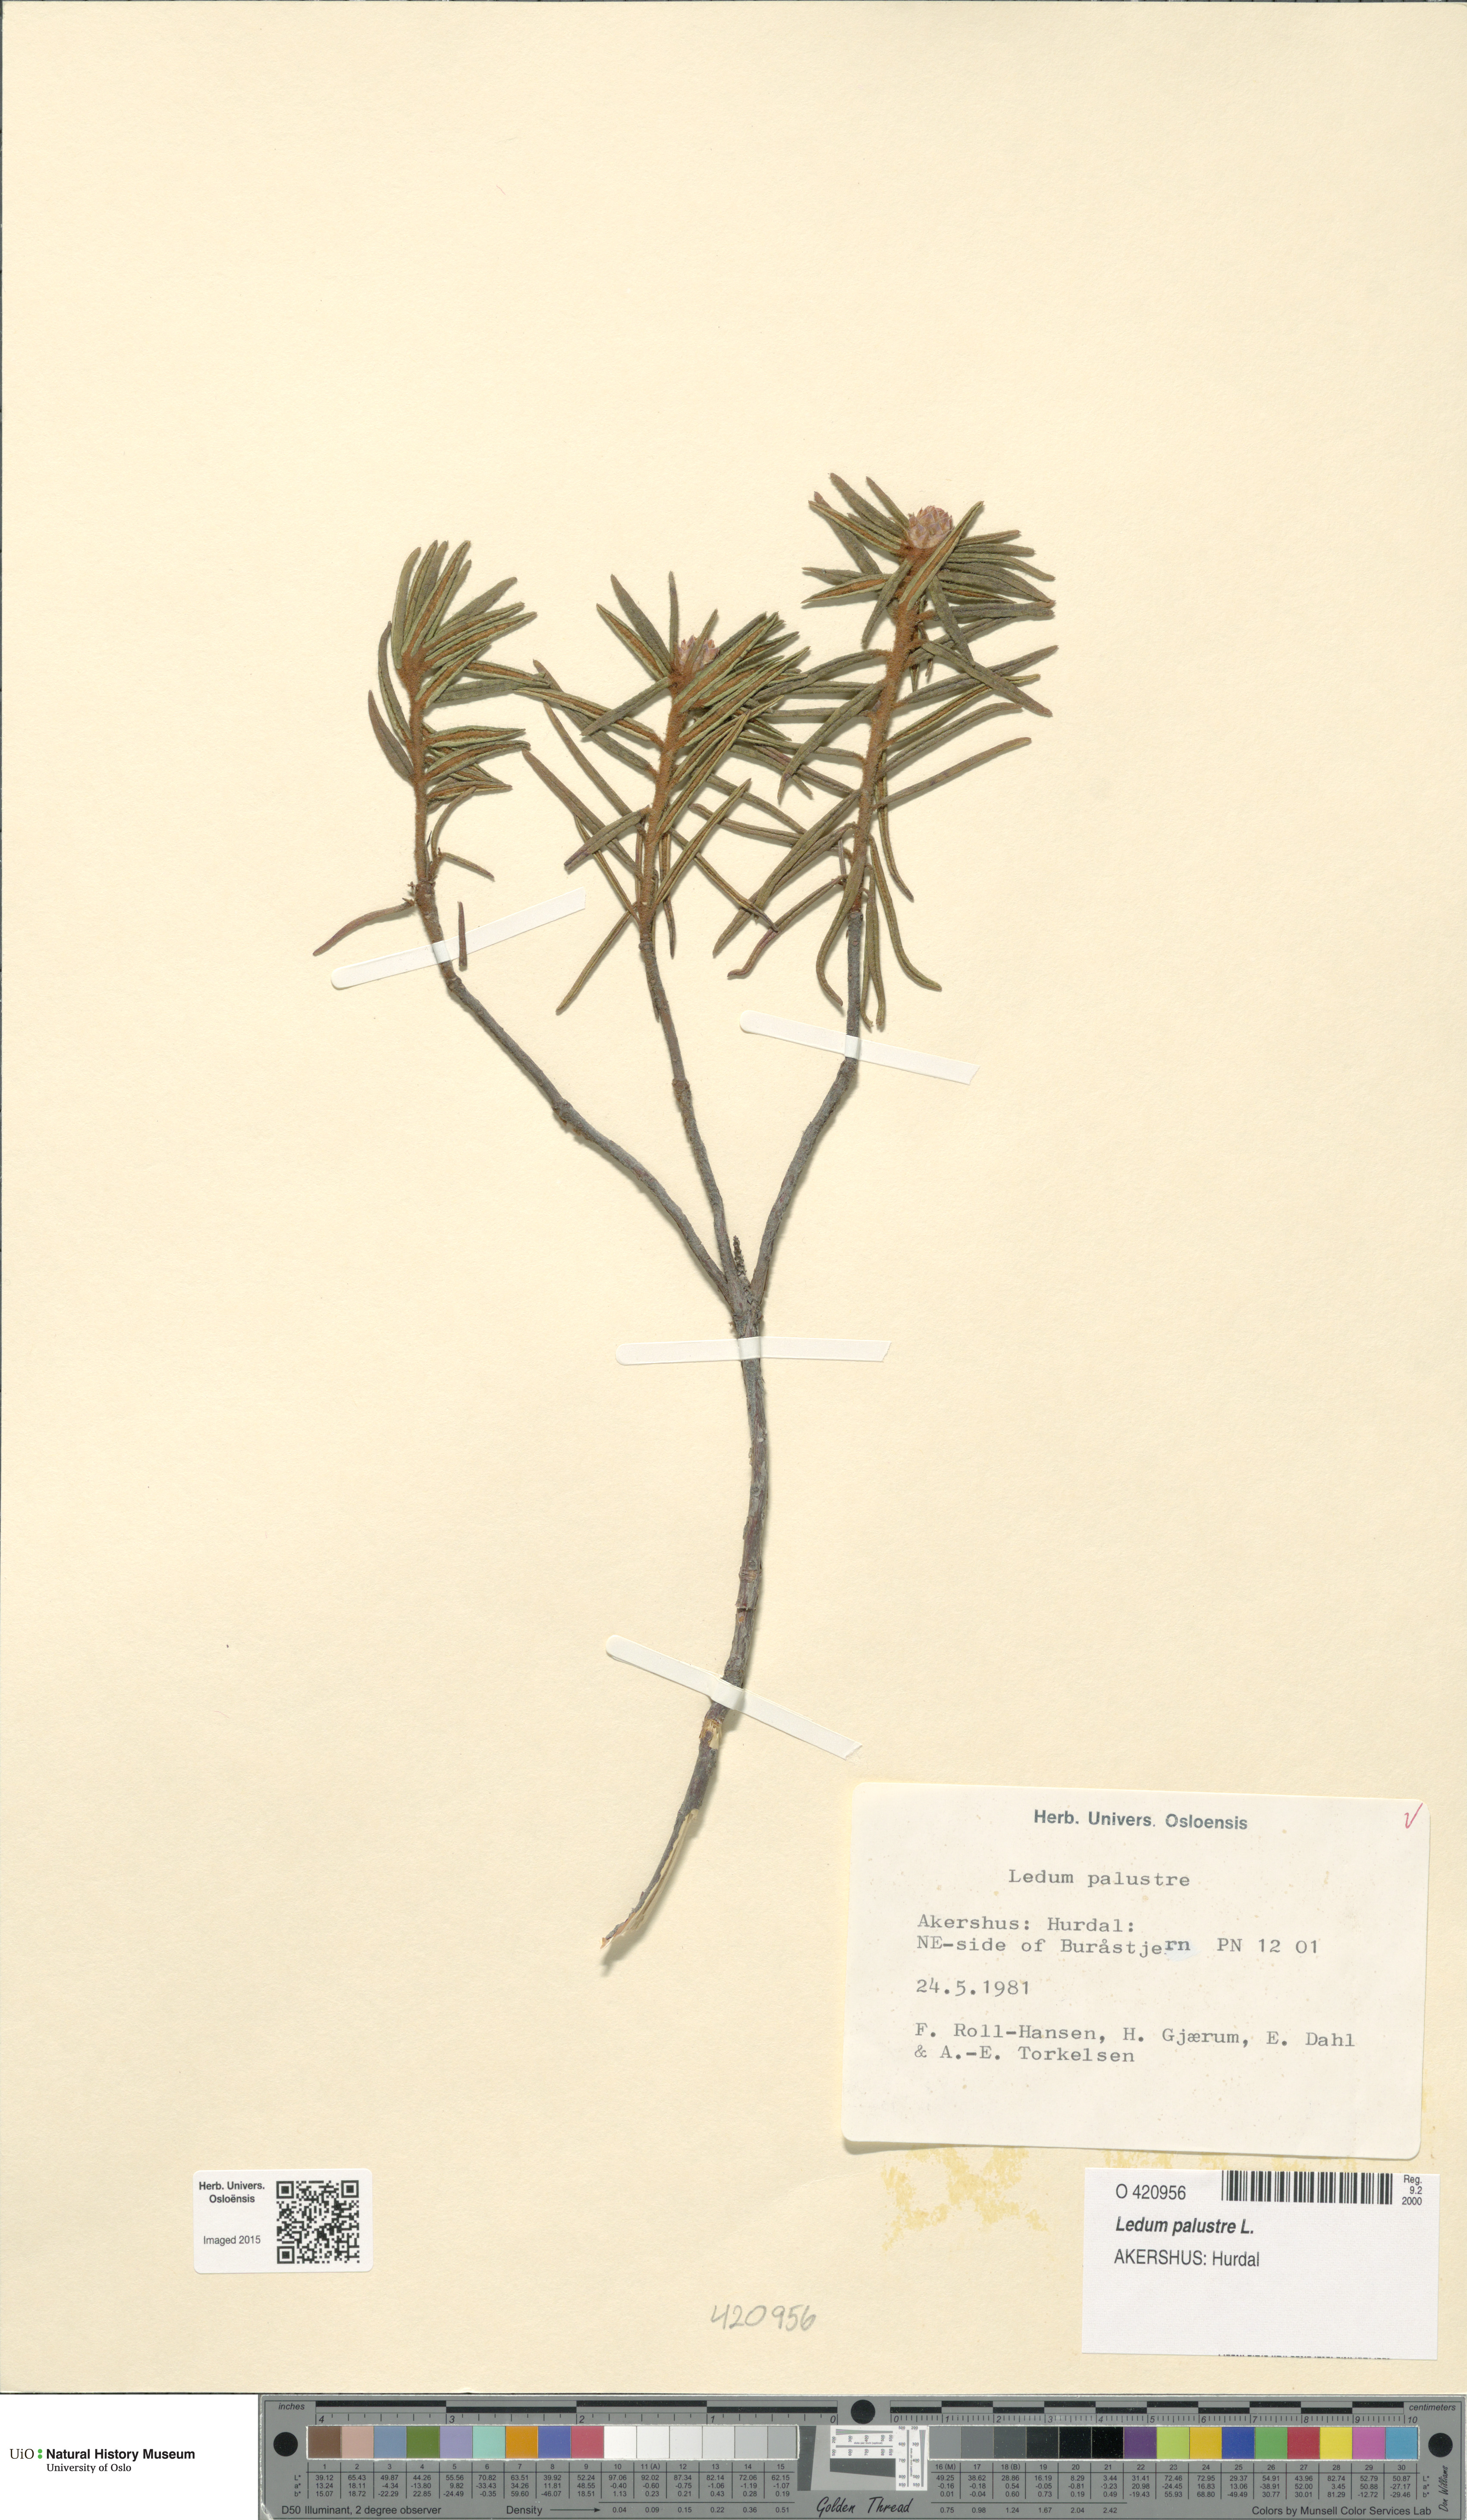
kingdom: Plantae
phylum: Tracheophyta
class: Magnoliopsida
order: Ericales
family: Ericaceae
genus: Rhododendron
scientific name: Rhododendron tomentosum
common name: Marsh labrador tea
